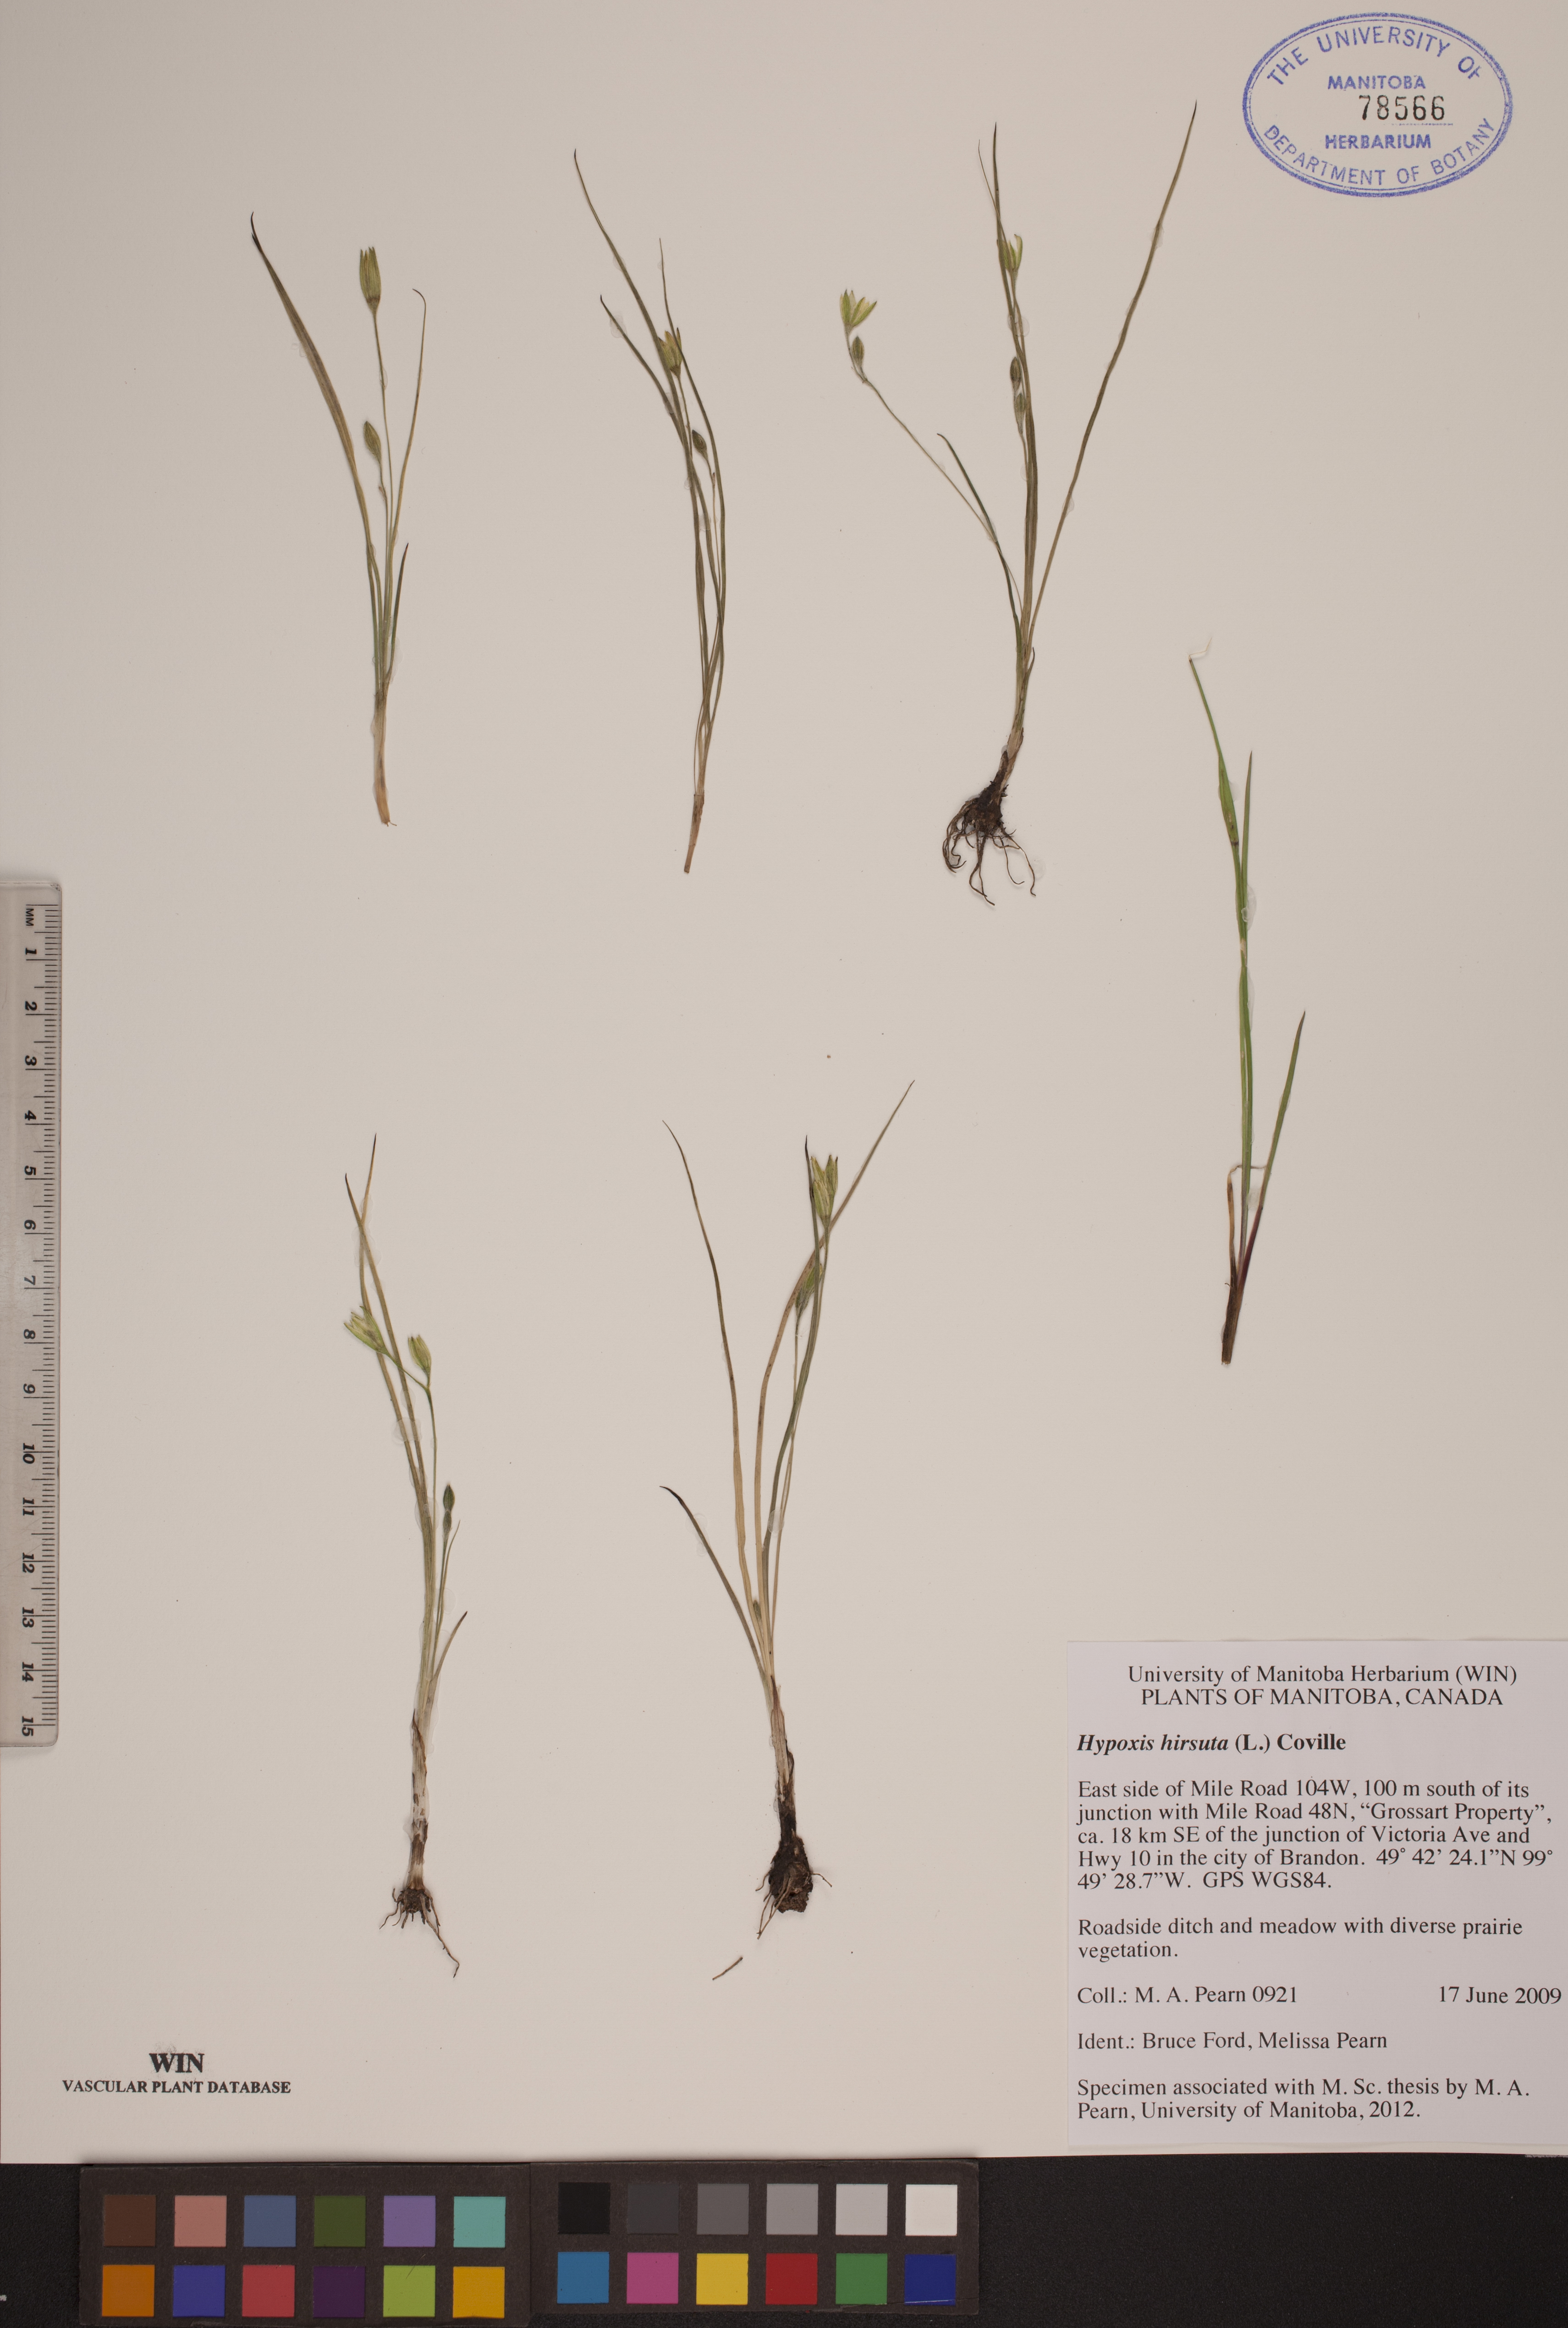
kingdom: Plantae
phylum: Tracheophyta
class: Liliopsida
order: Asparagales
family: Hypoxidaceae
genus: Hypoxis
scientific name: Hypoxis hirsuta
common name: Common goldstar
